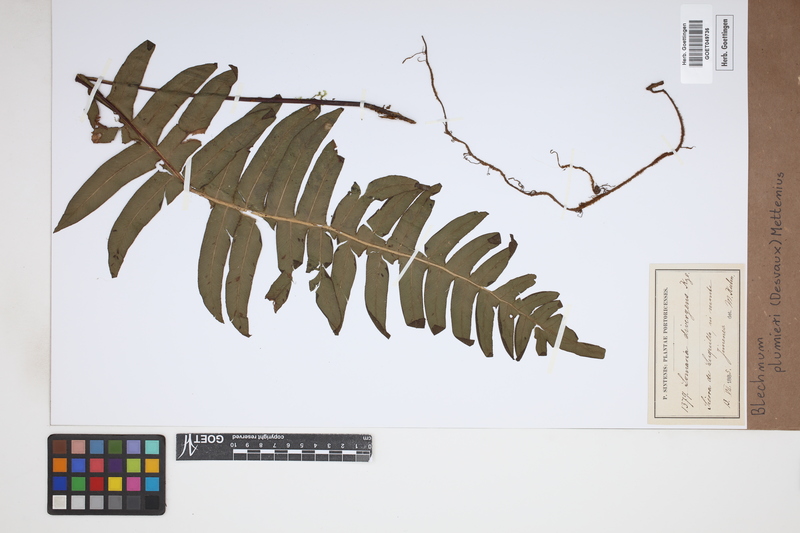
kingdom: Plantae
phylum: Tracheophyta
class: Polypodiopsida
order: Polypodiales
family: Blechnaceae
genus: Lomaridium
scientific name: Lomaridium binervatum
